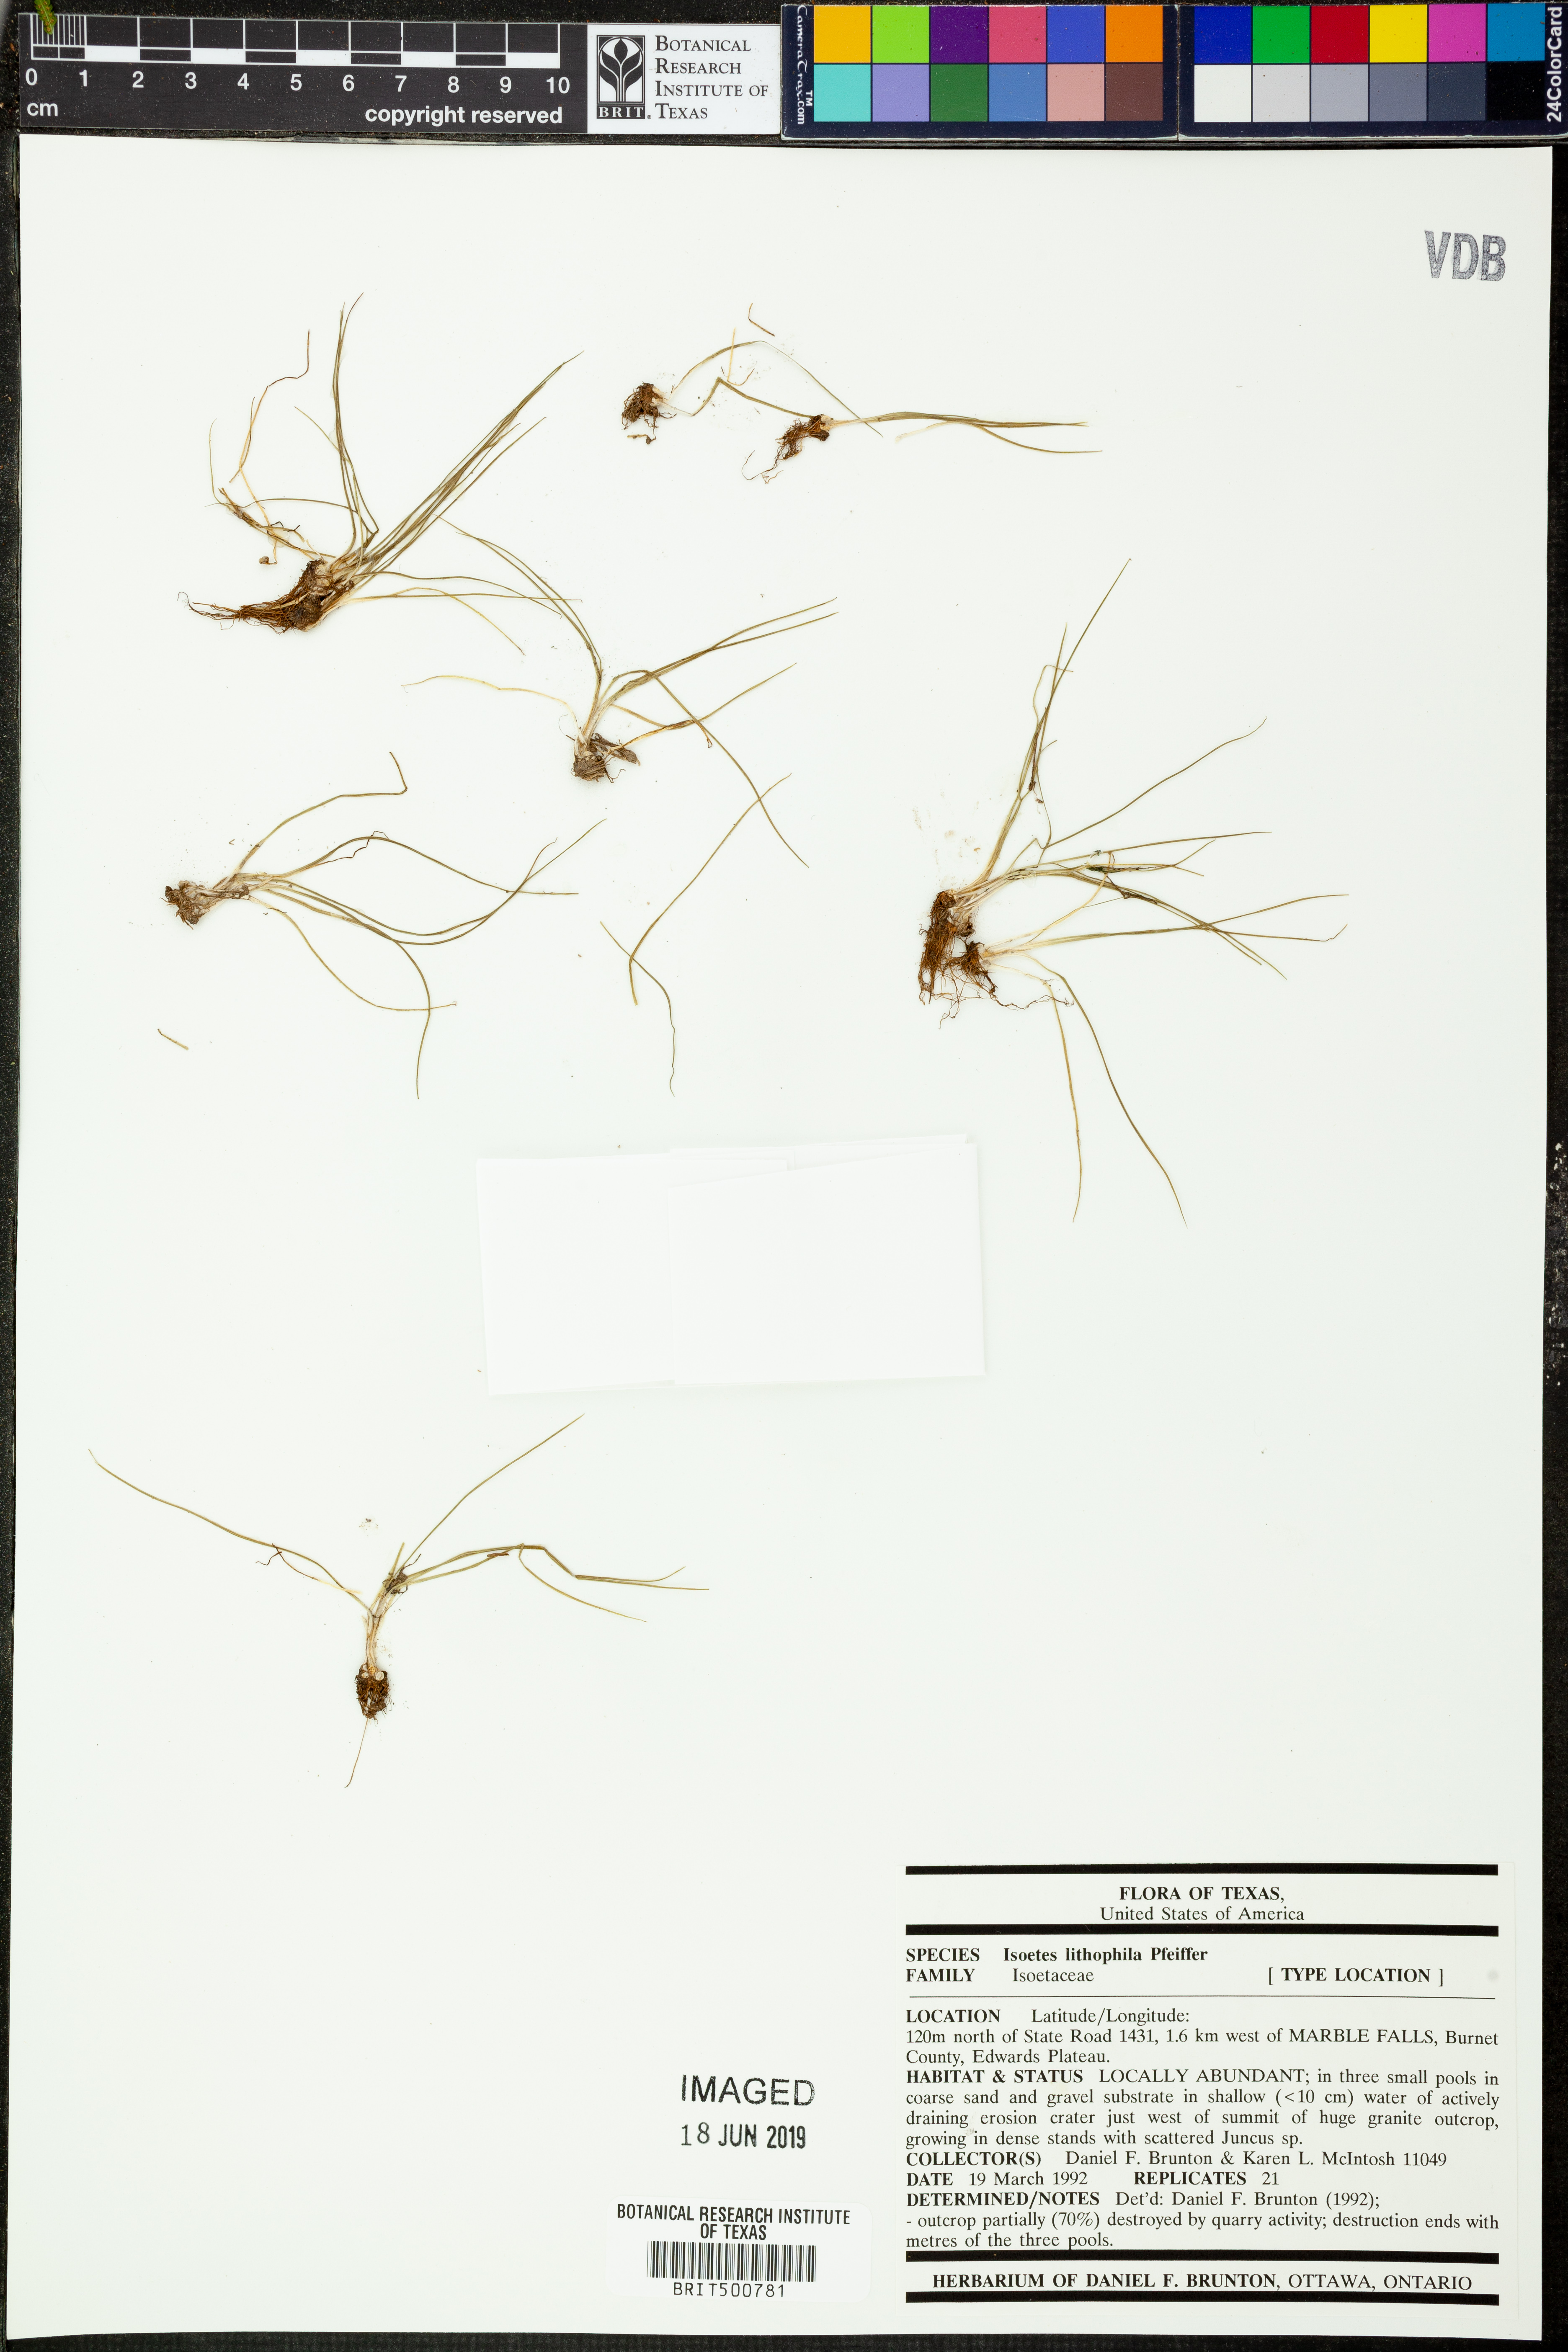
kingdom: Plantae
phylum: Tracheophyta
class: Lycopodiopsida
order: Isoetales
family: Isoetaceae
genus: Isoetes
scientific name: Isoetes lithophila
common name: Rock quillwort
